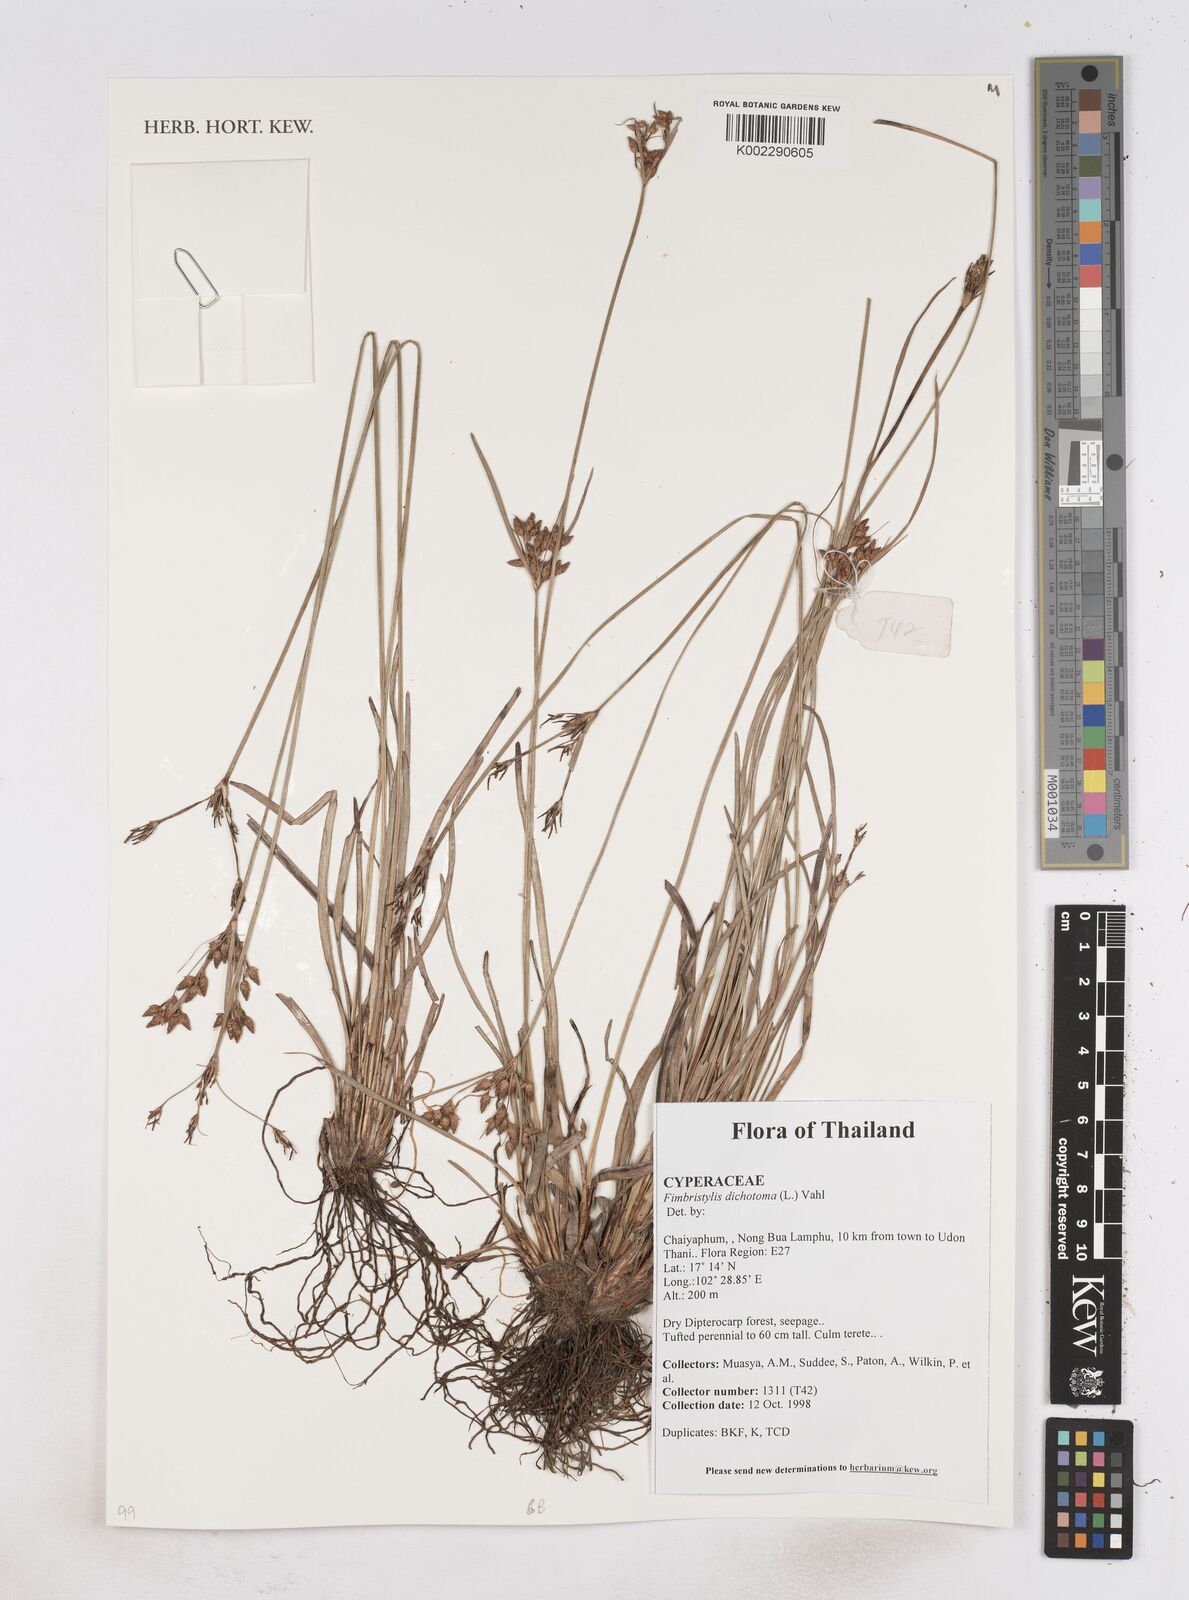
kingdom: Plantae
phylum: Tracheophyta
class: Liliopsida
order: Poales
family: Cyperaceae
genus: Fimbristylis
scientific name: Fimbristylis dichotoma
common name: Forked fimbry
